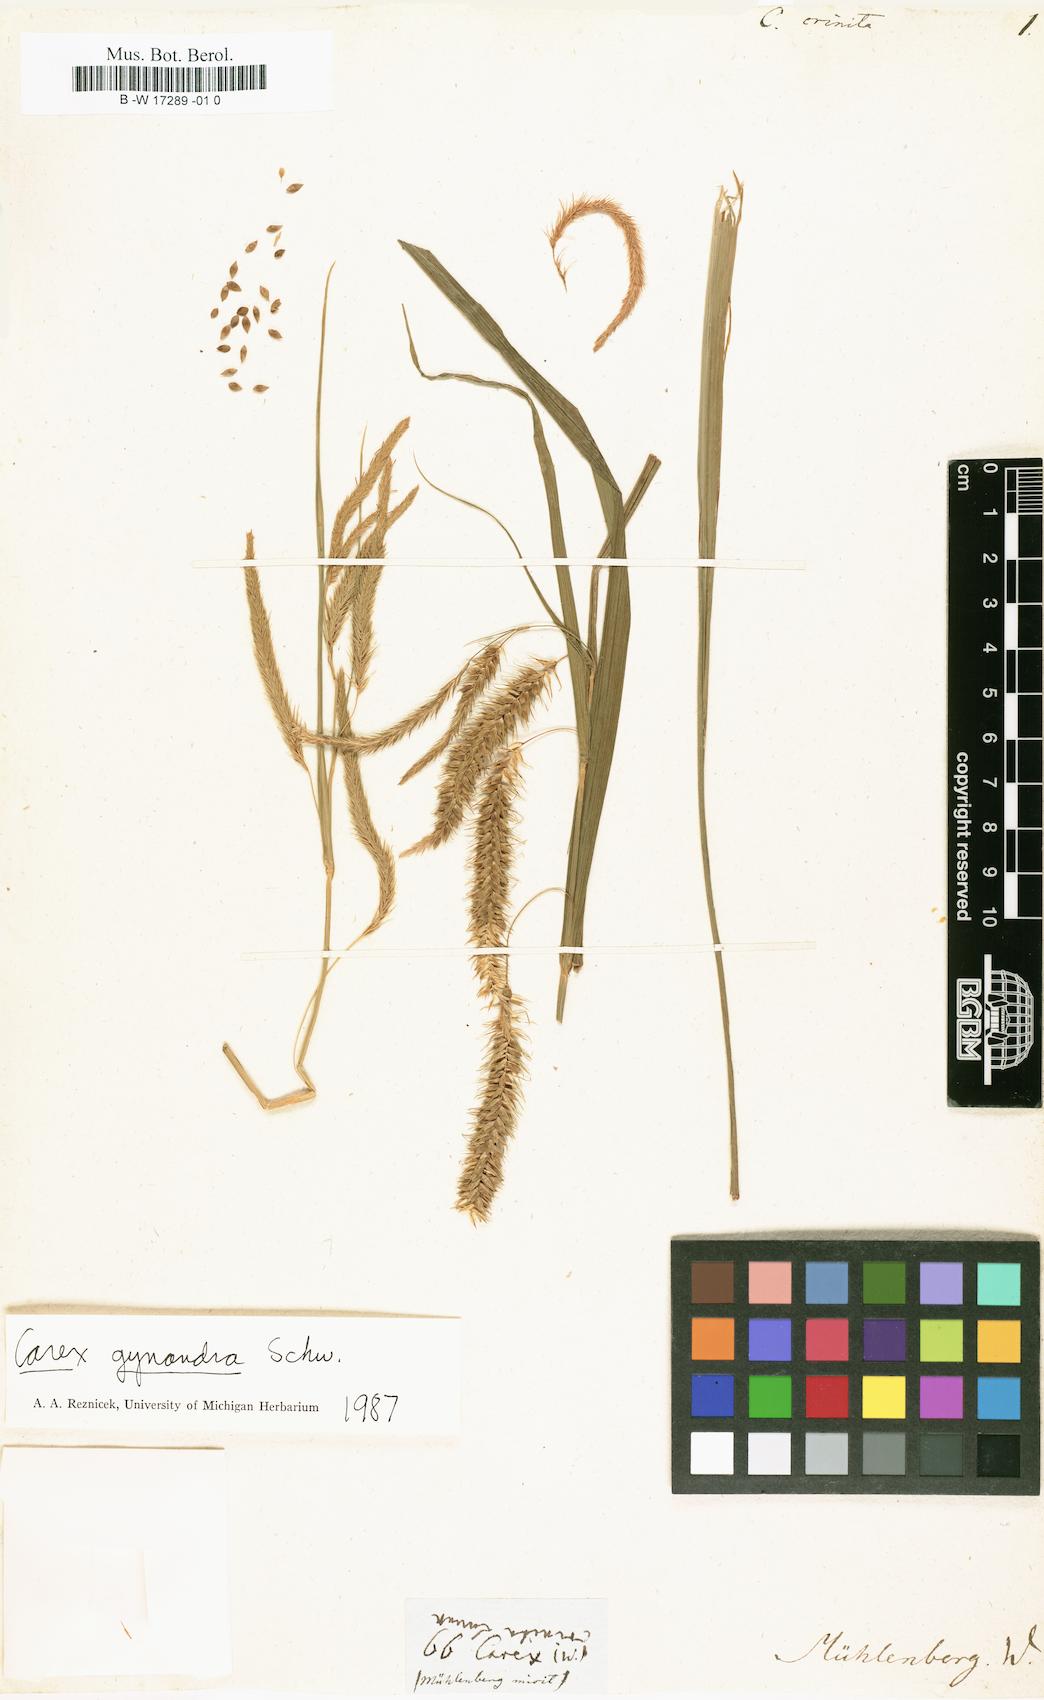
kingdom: Plantae
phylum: Tracheophyta
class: Liliopsida
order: Poales
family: Cyperaceae
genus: Carex
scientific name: Carex crinita
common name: Fringed sedge
